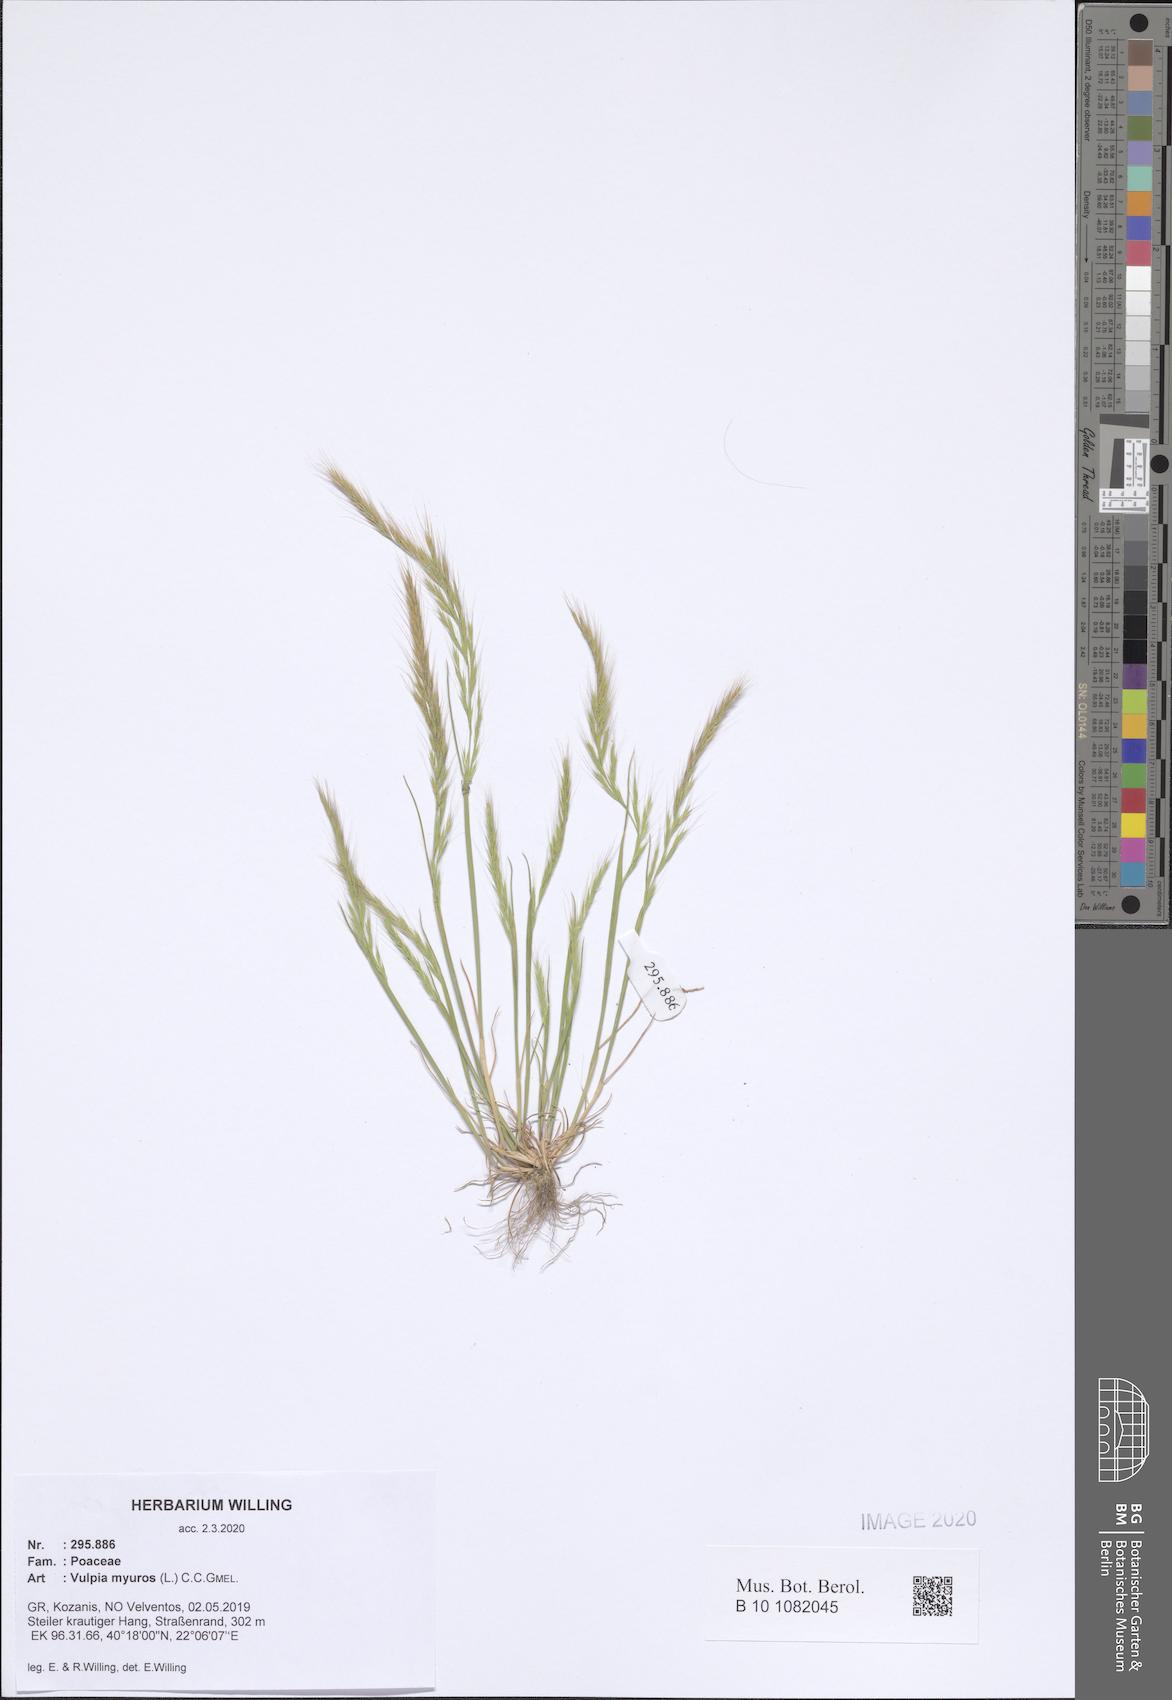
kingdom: Plantae
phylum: Tracheophyta
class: Liliopsida
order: Poales
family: Poaceae
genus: Festuca
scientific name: Festuca myuros
